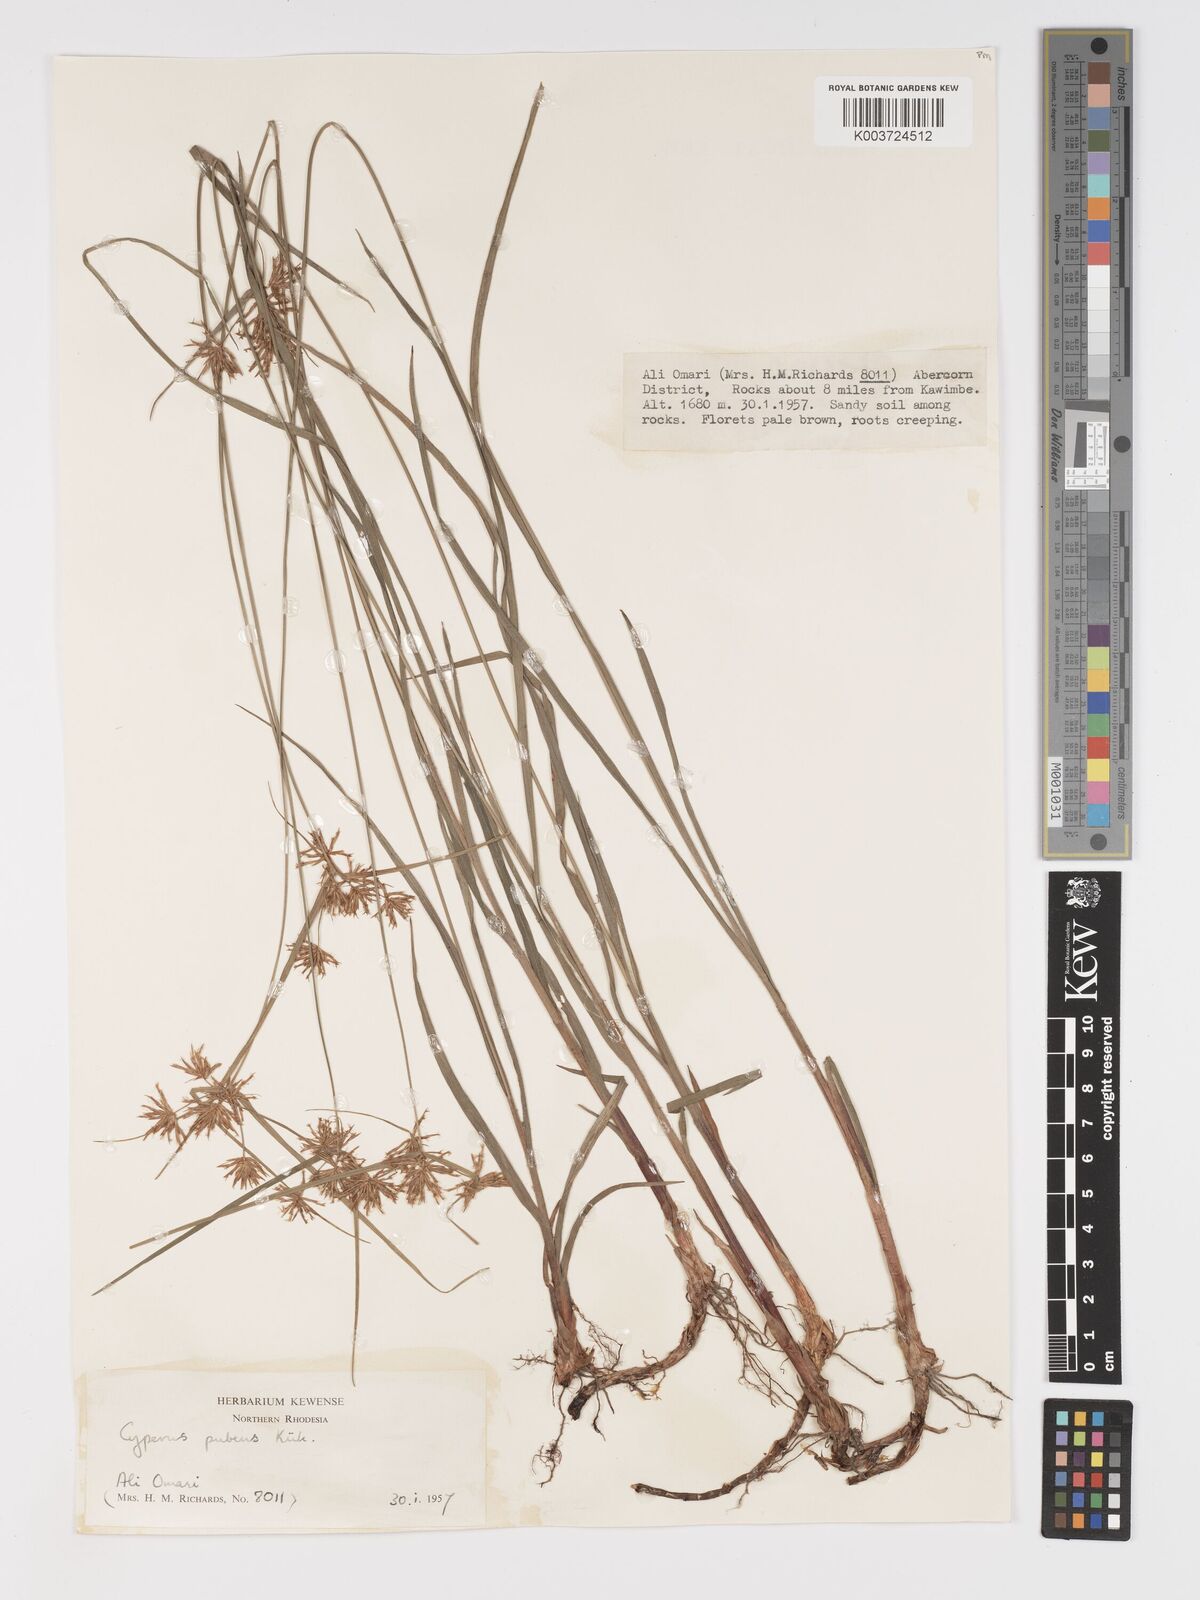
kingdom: Plantae
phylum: Tracheophyta
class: Liliopsida
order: Poales
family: Cyperaceae
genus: Cyperus
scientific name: Cyperus pubens
